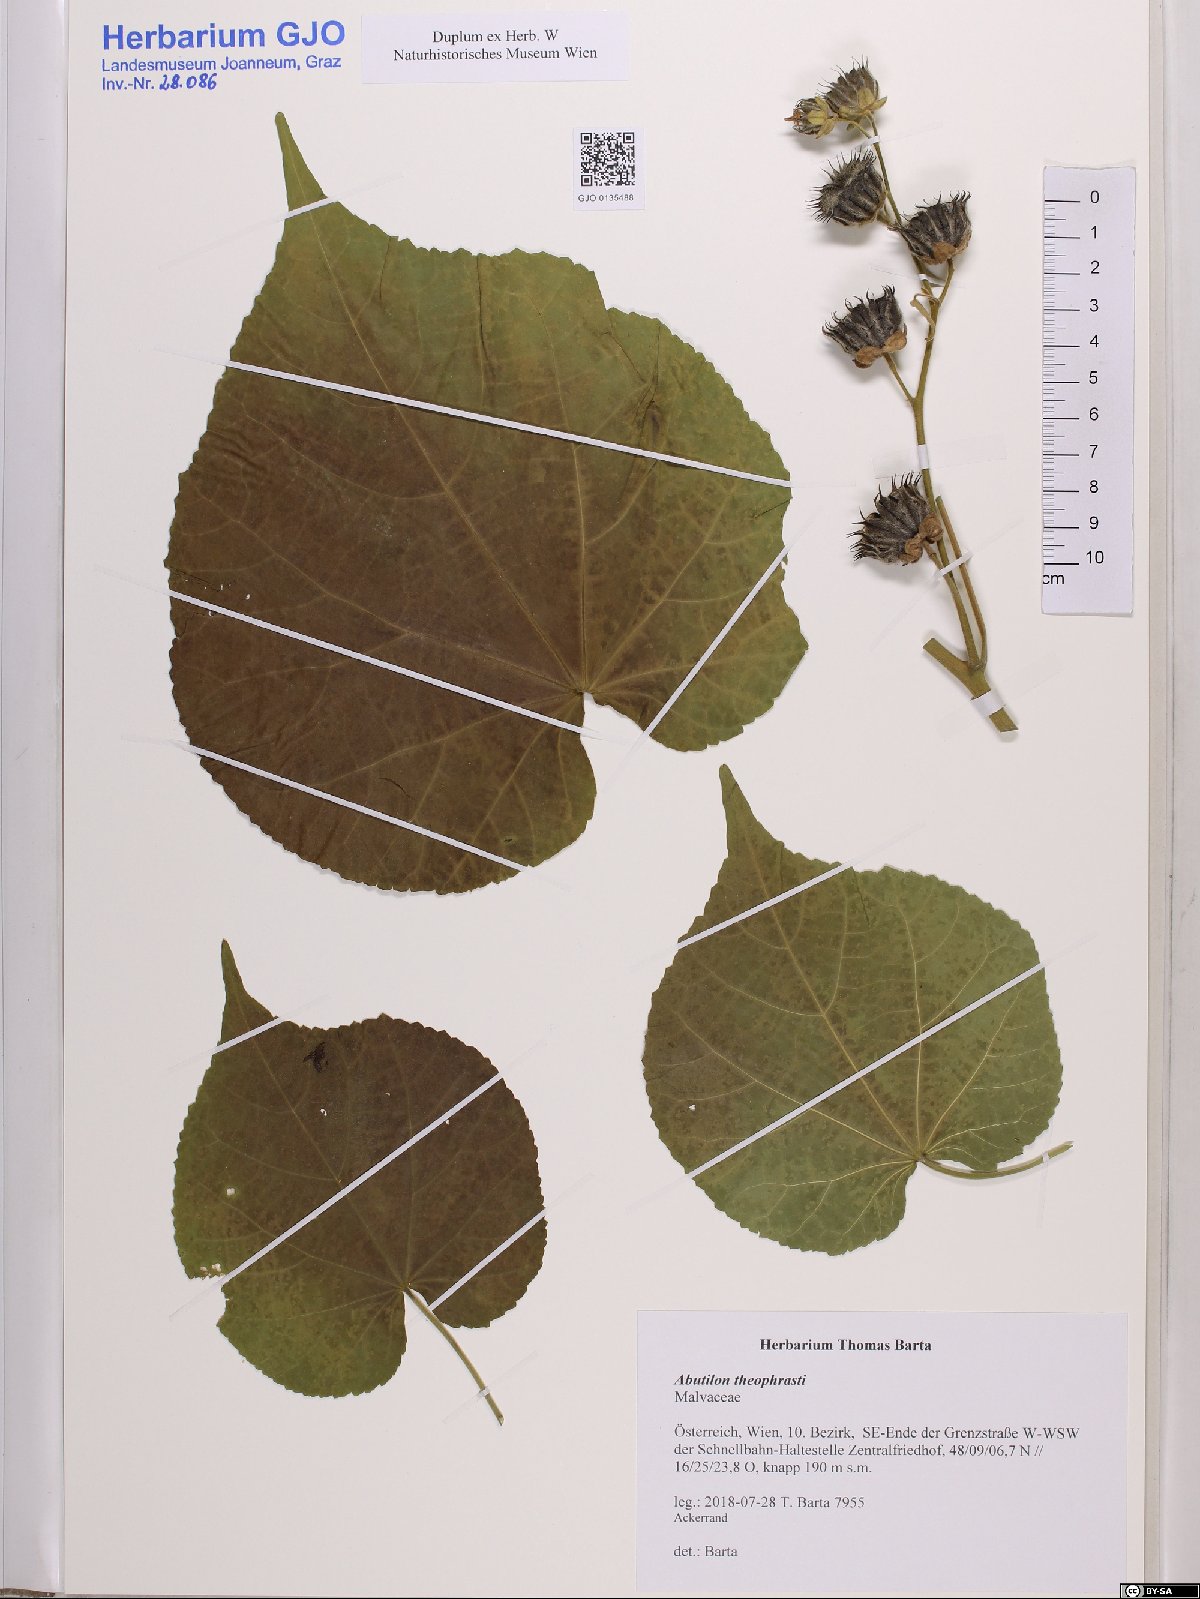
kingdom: Plantae
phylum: Tracheophyta
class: Magnoliopsida
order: Malvales
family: Malvaceae
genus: Abutilon
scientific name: Abutilon theophrasti
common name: Velvetleaf
